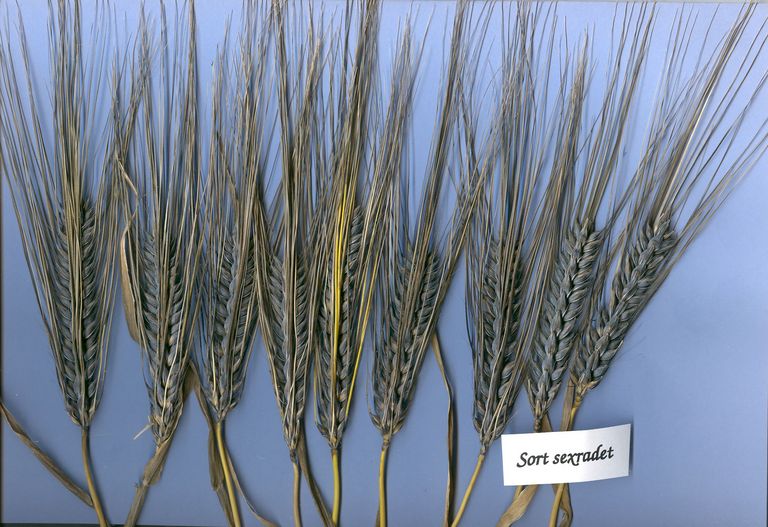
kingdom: Plantae
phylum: Tracheophyta
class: Liliopsida
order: Poales
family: Poaceae
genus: Hordeum
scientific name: Hordeum vulgare
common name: Common barley
